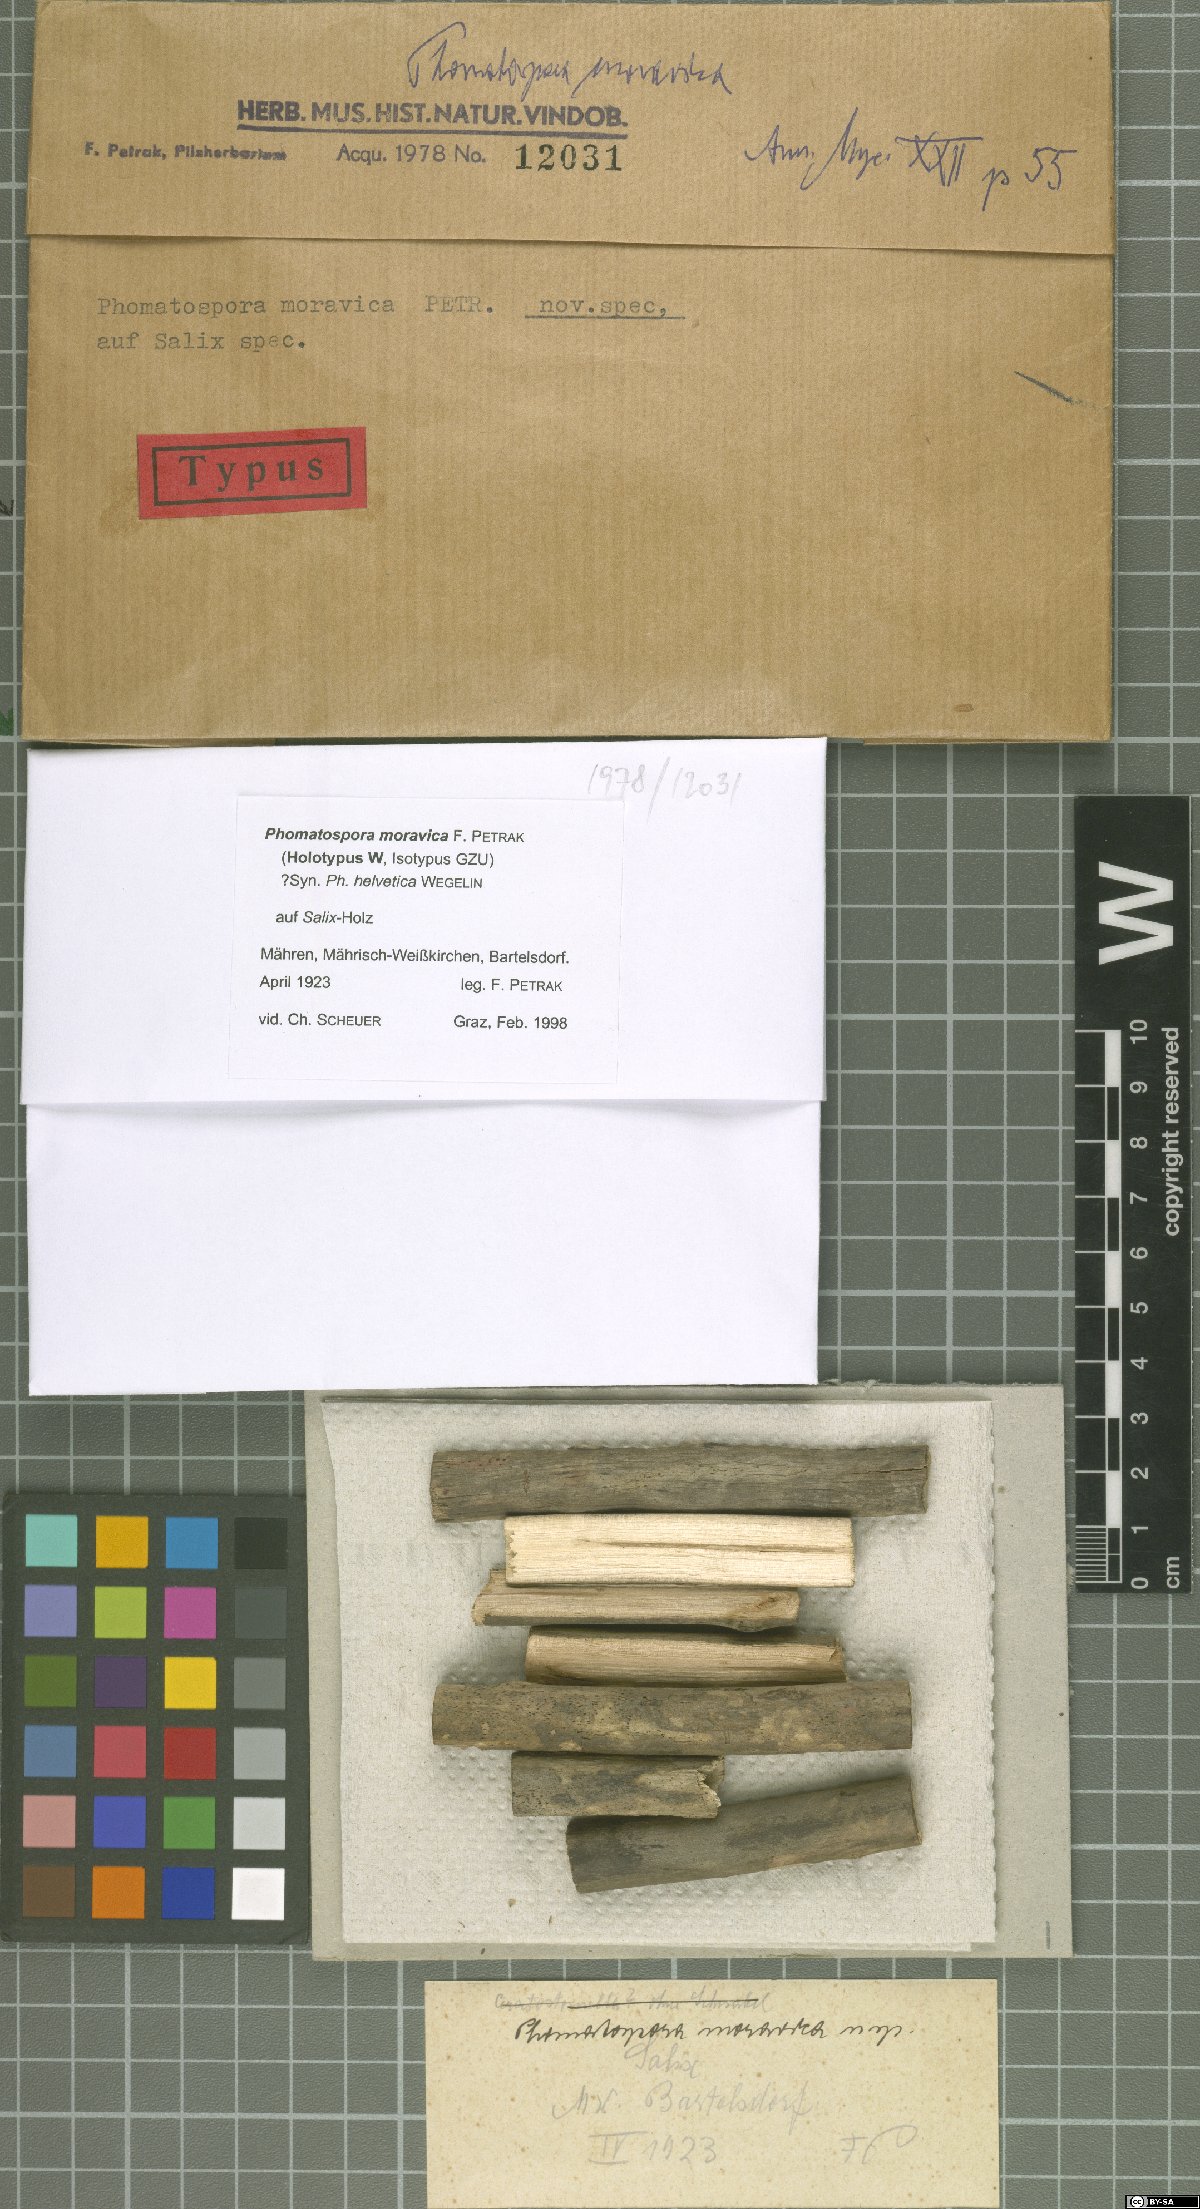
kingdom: Fungi
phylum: Ascomycota
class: Sordariomycetes
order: Phomatosporales
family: Phomatosporaceae
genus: Phomatospora
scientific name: Phomatospora moravica
